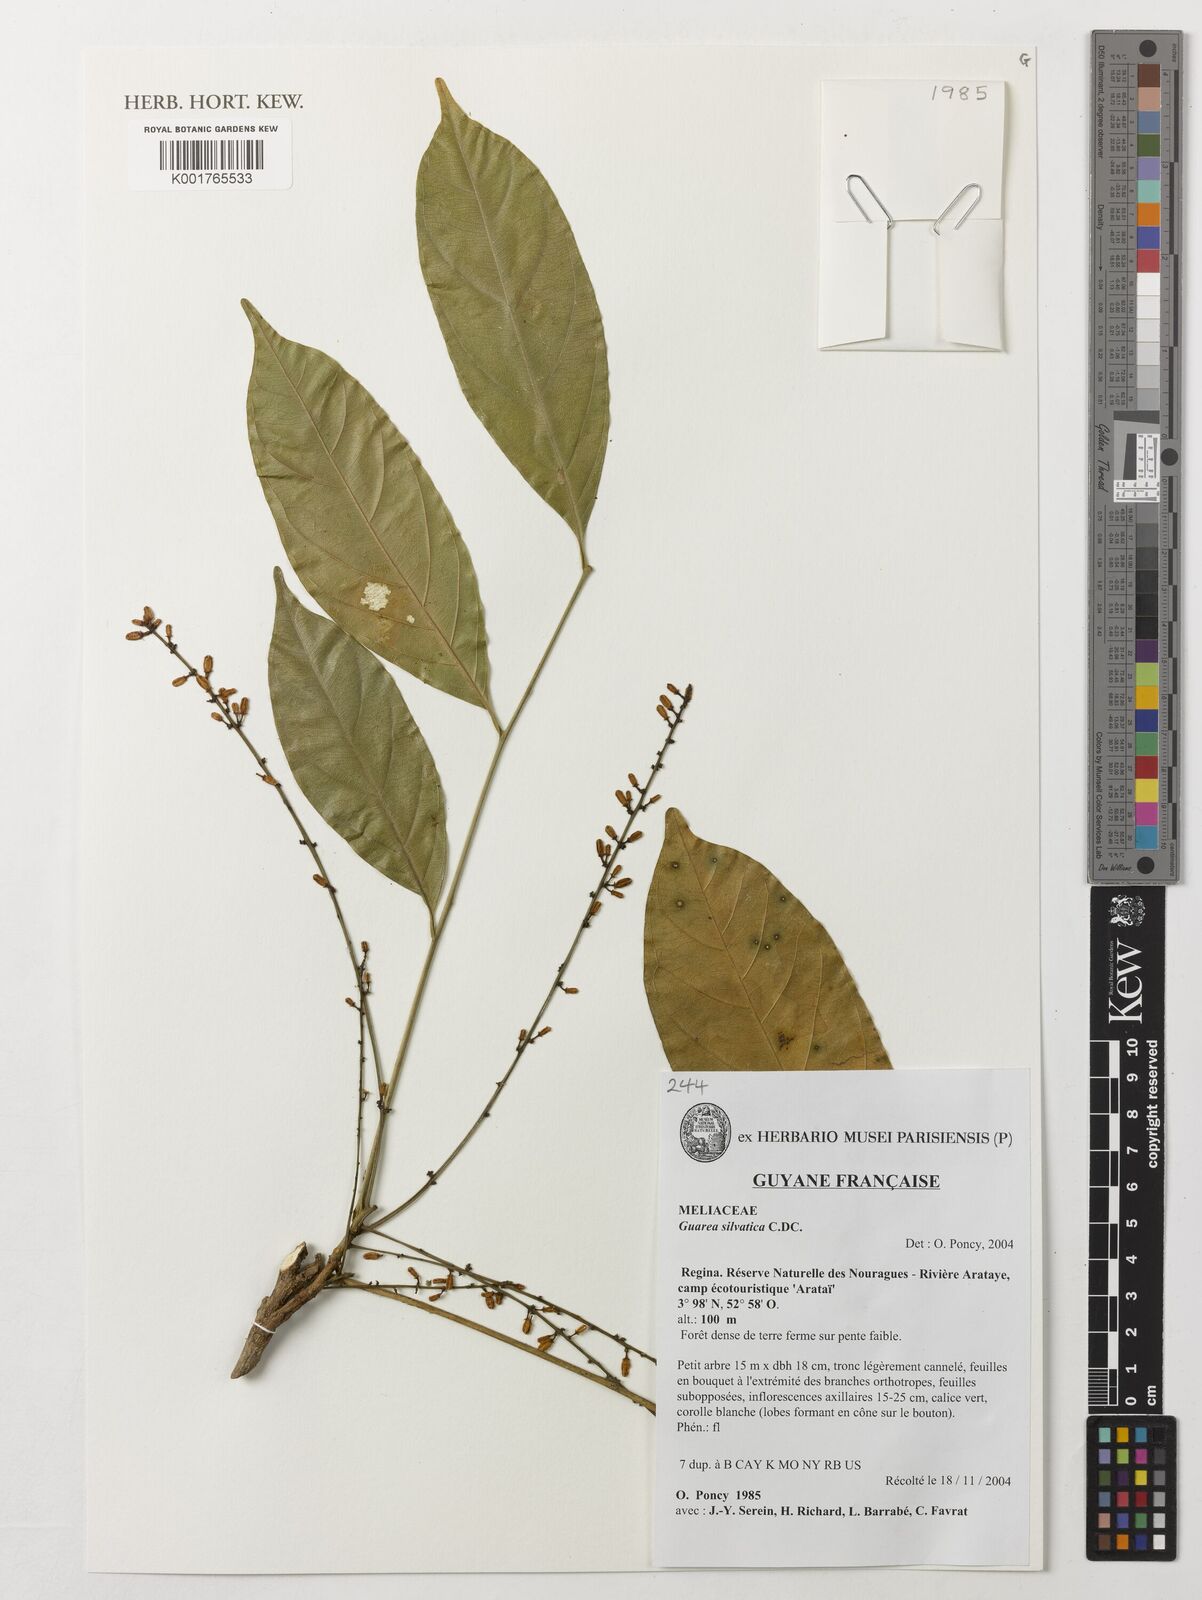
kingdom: Plantae
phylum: Tracheophyta
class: Magnoliopsida
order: Sapindales
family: Meliaceae
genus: Guarea
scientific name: Guarea silvatica
